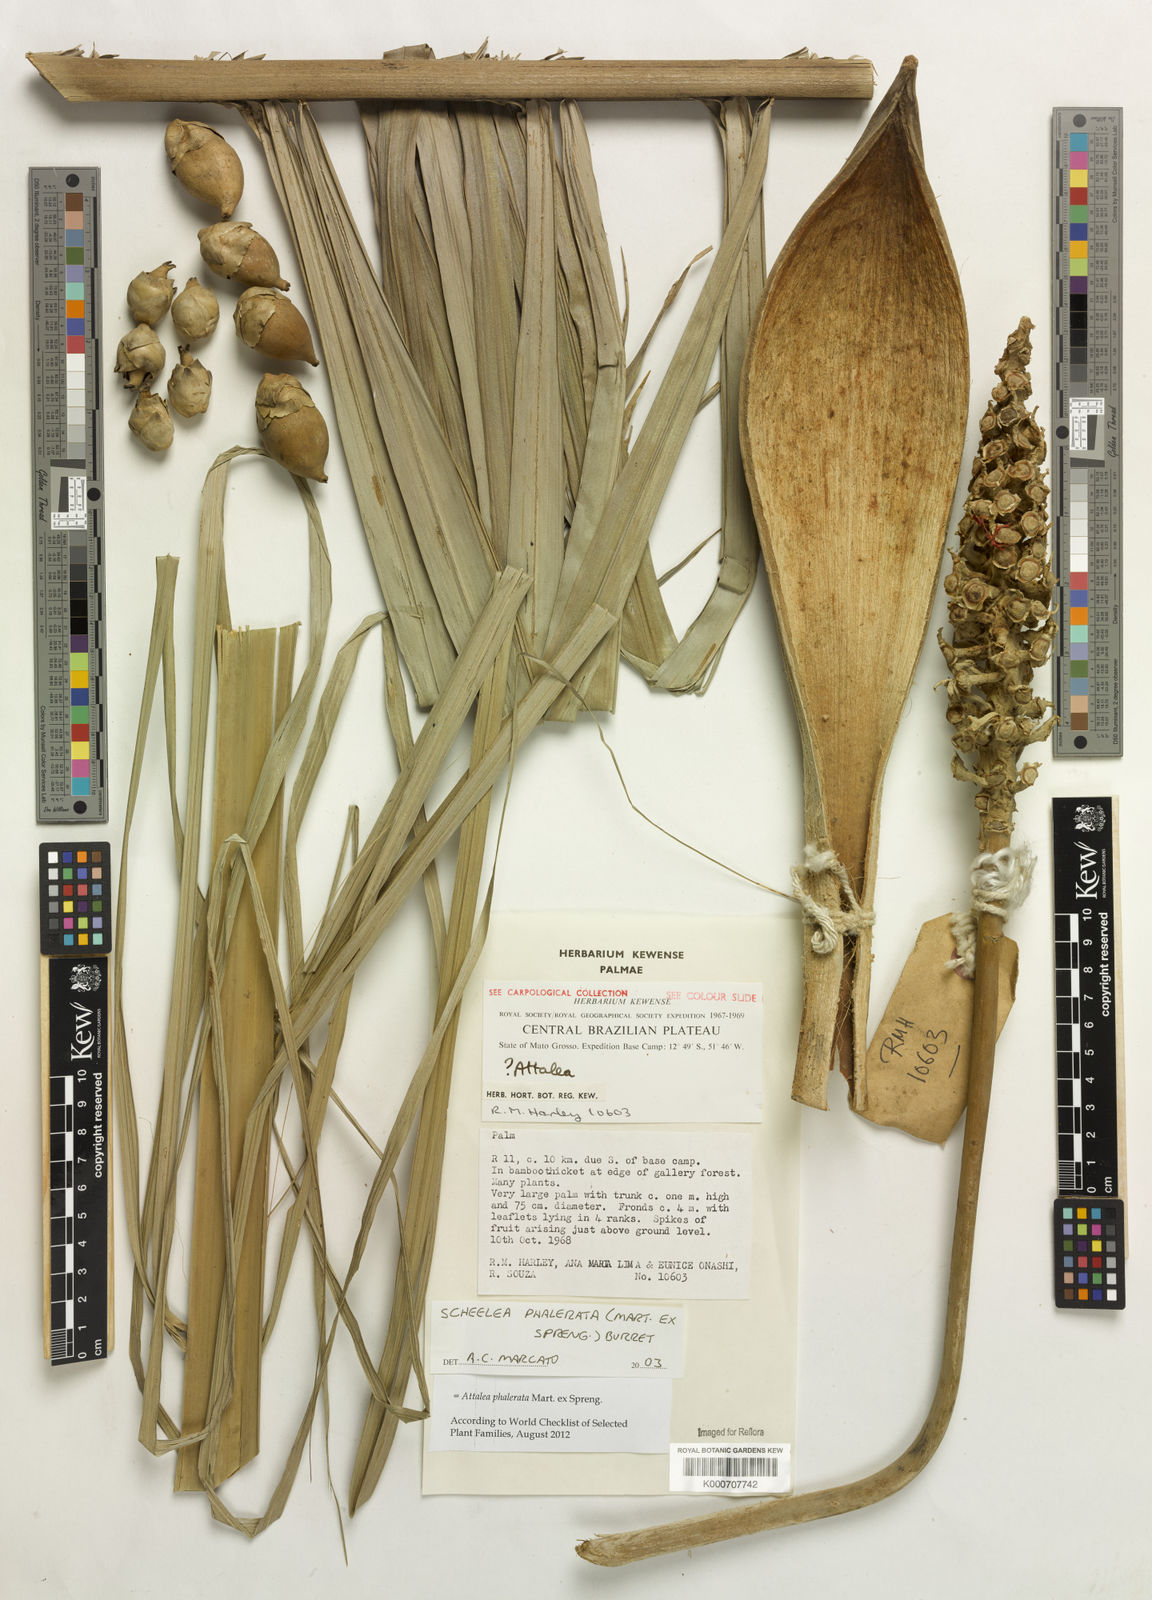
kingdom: Plantae
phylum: Tracheophyta
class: Liliopsida
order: Arecales
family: Arecaceae
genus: Attalea
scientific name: Attalea phalerata
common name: Urucuri palm
